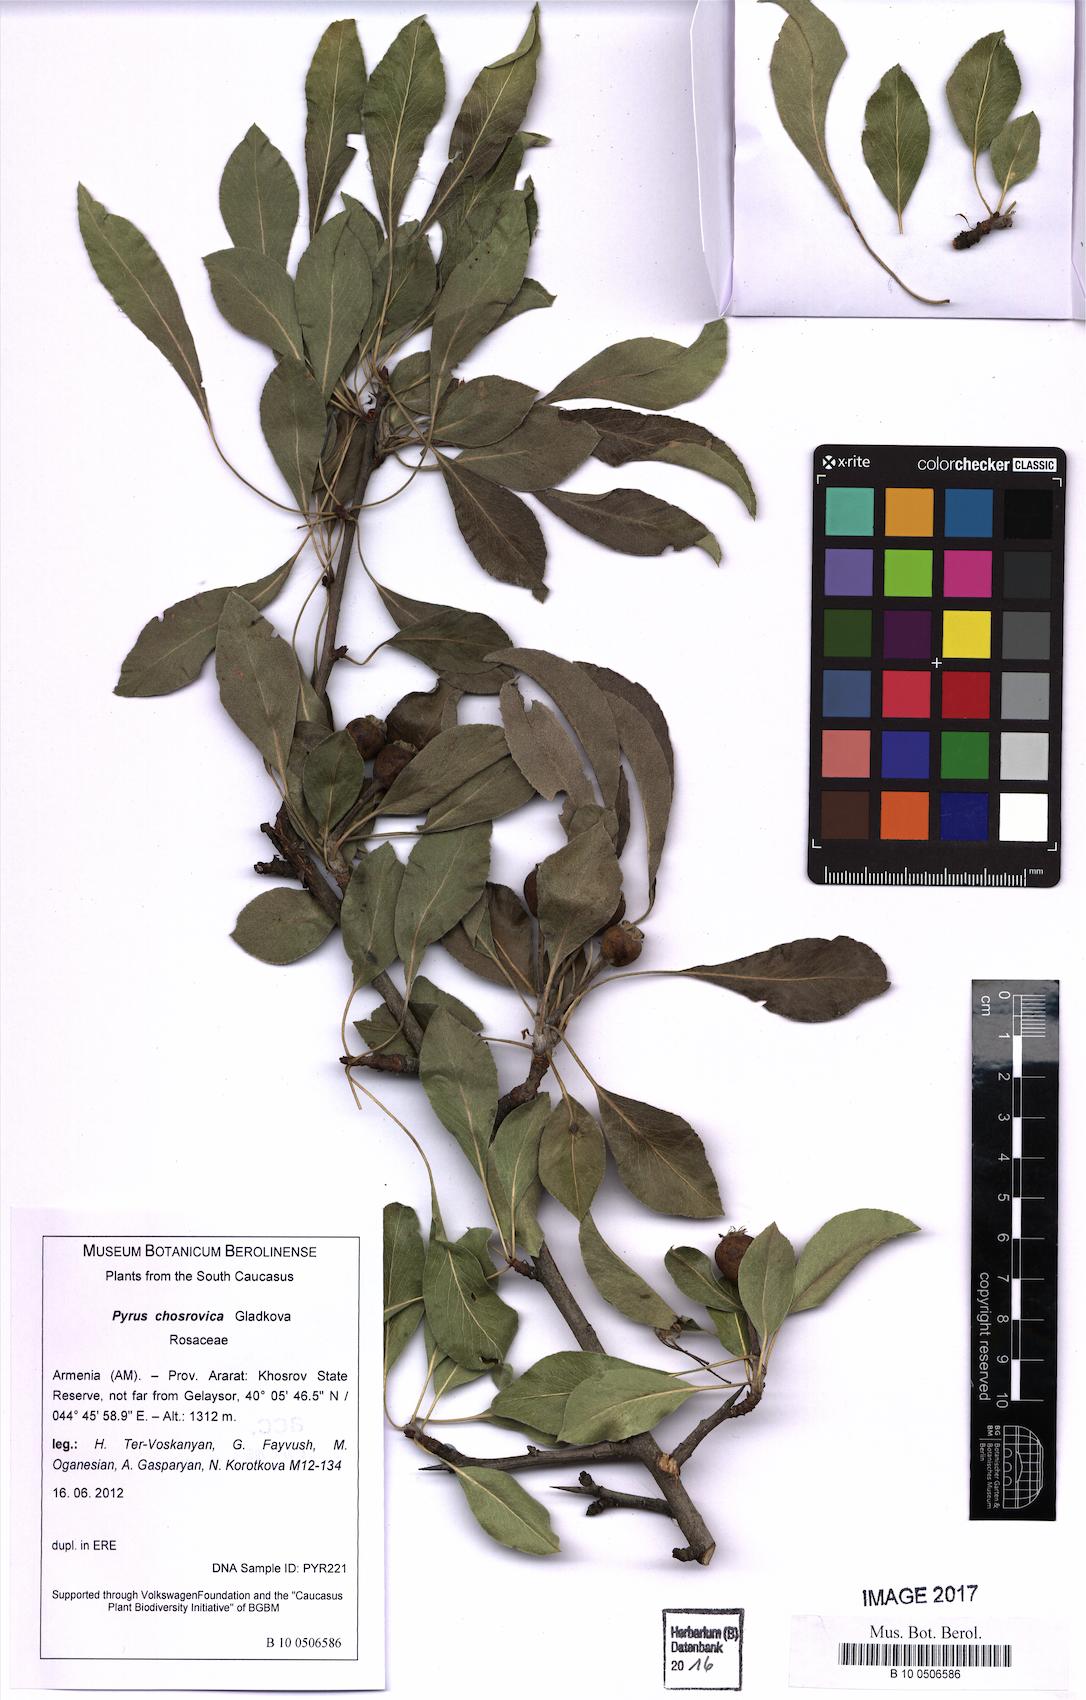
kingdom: Plantae
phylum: Tracheophyta
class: Magnoliopsida
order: Rosales
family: Rosaceae
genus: Pyrus
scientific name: Pyrus chosrovica
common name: Khosrovian pear
